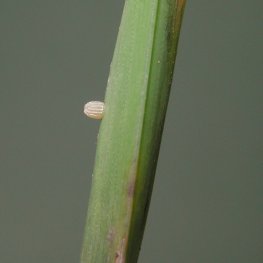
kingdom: Animalia
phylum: Arthropoda
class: Insecta
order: Lepidoptera
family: Nymphalidae
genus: Boloria
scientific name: Boloria selene
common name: Silver-bordered Fritillary
